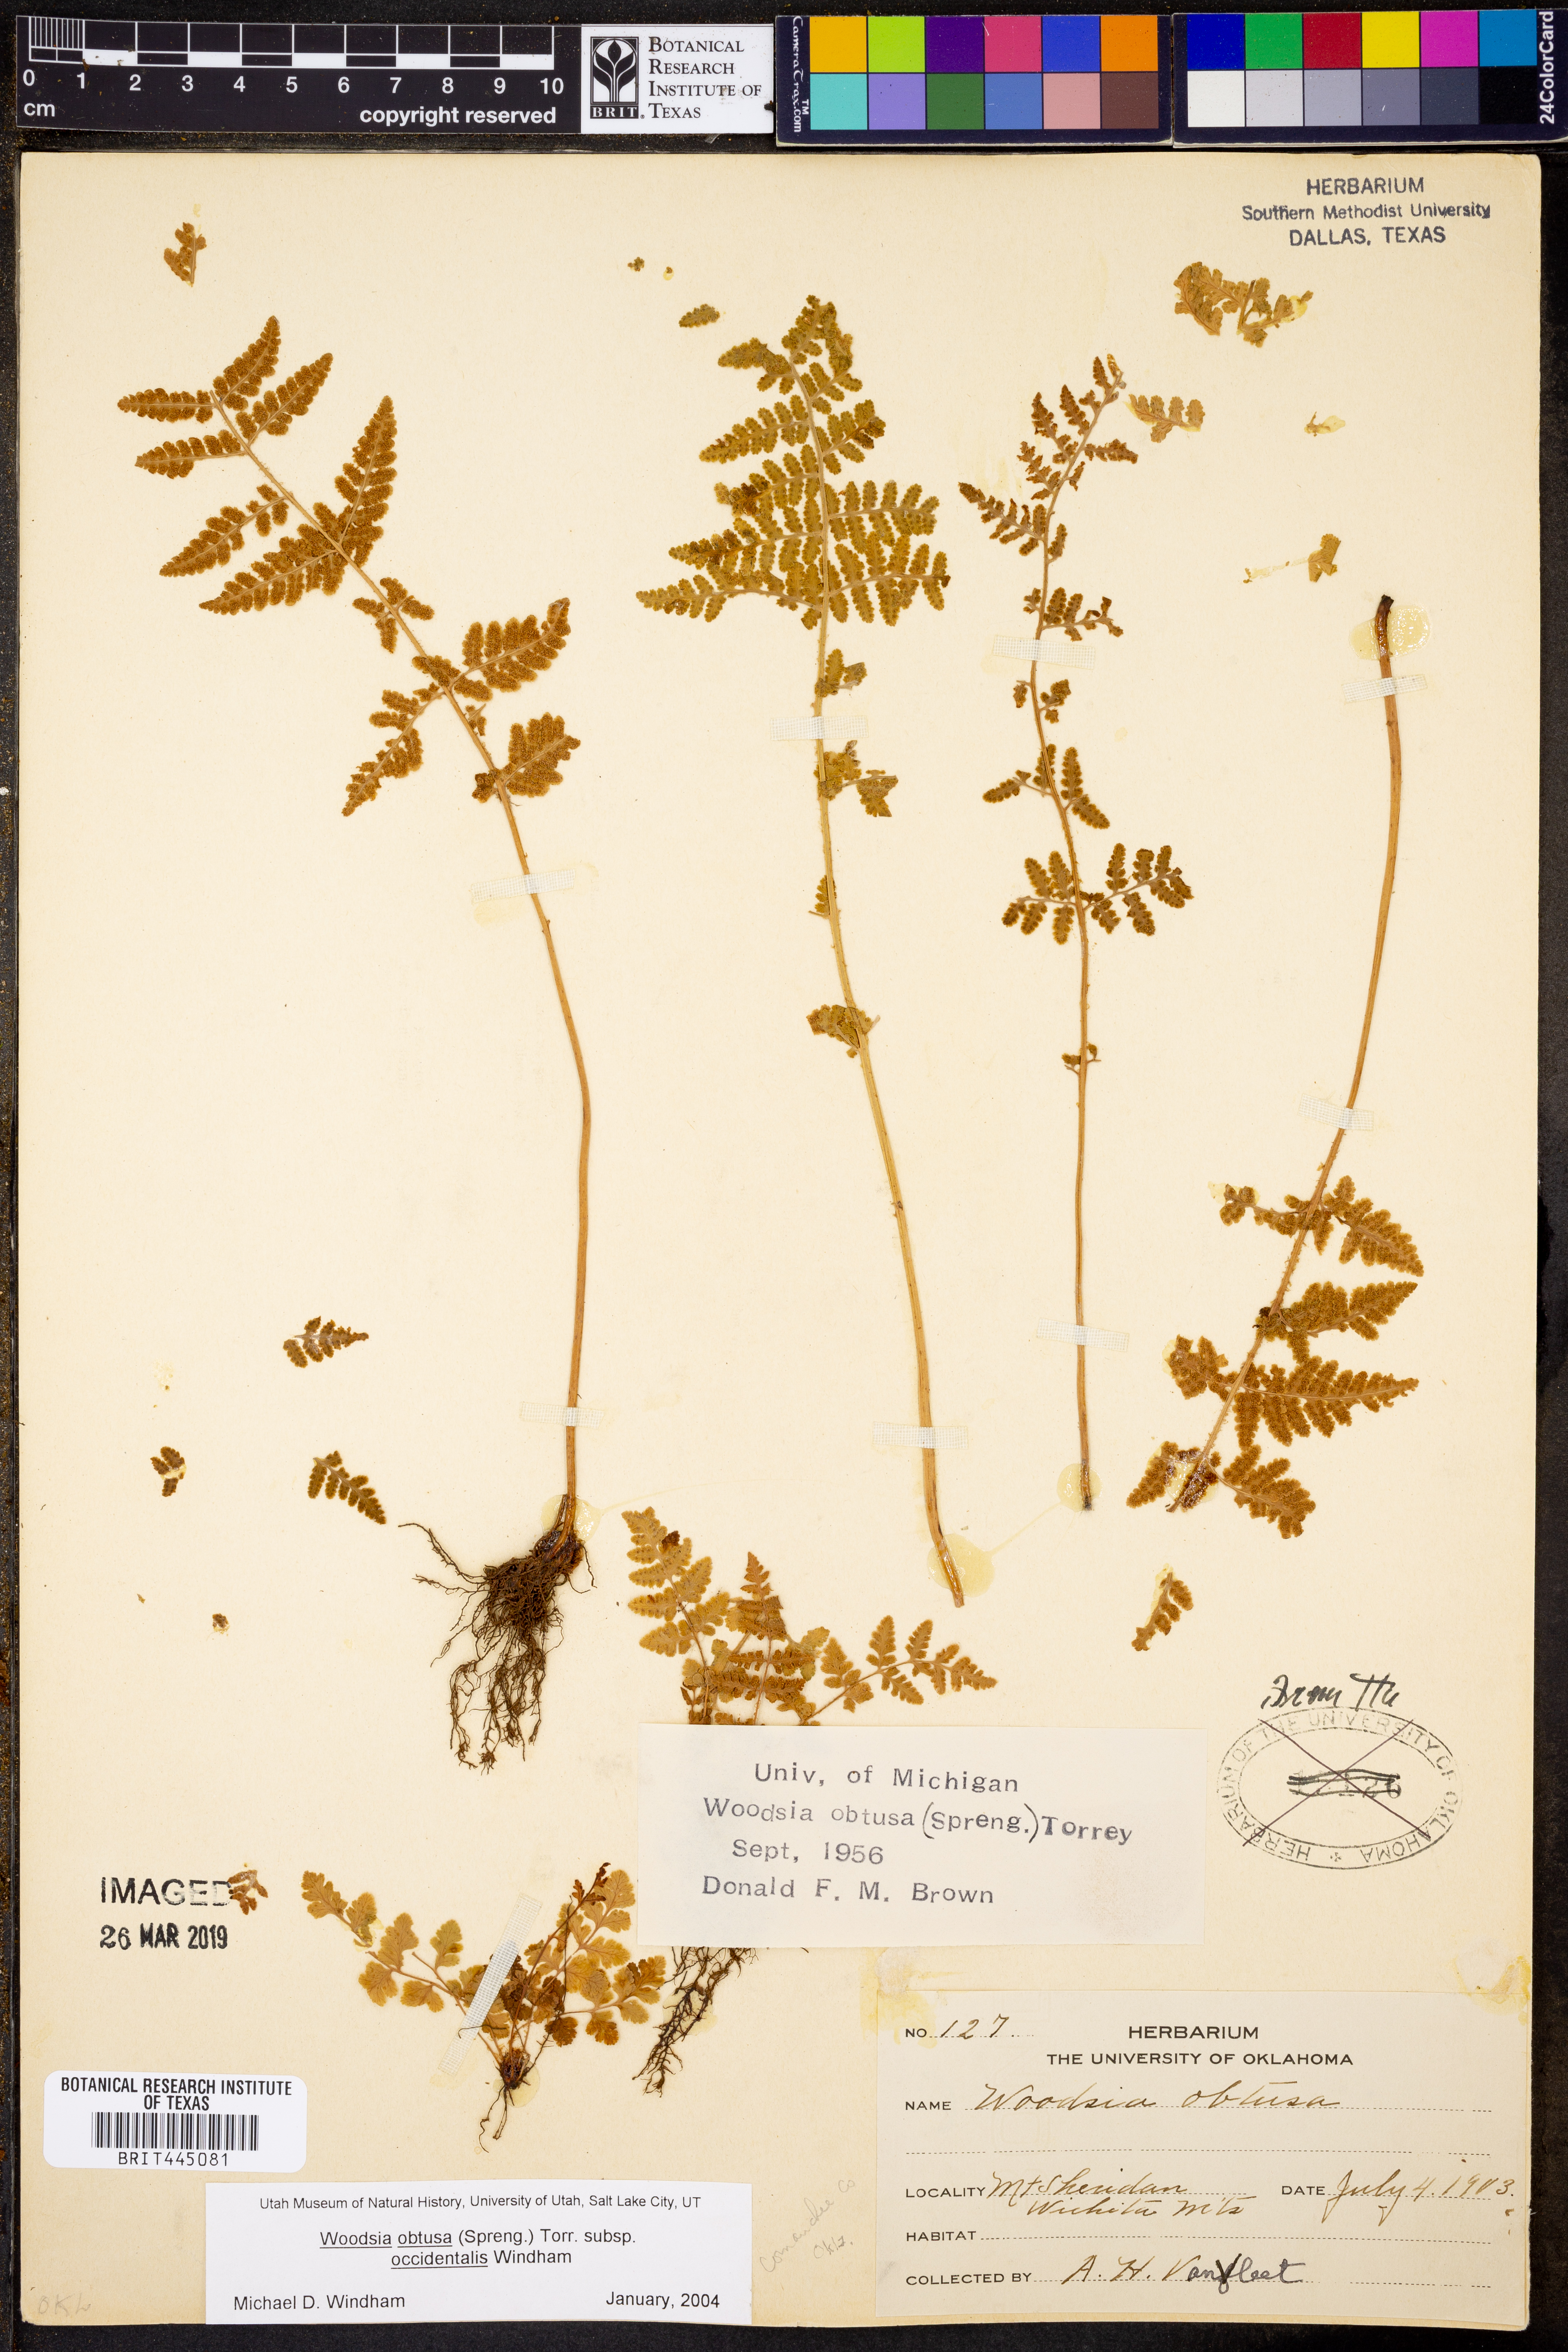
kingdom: Plantae
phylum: Tracheophyta
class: Polypodiopsida
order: Polypodiales
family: Woodsiaceae
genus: Physematium
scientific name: Physematium obtusum
